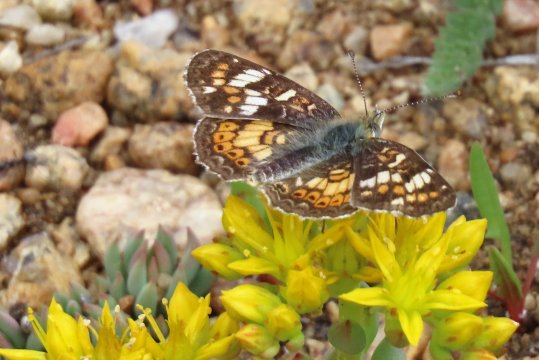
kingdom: Animalia
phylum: Arthropoda
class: Insecta
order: Lepidoptera
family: Nymphalidae
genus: Phyciodes
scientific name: Phyciodes tharos
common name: Field Crescent
